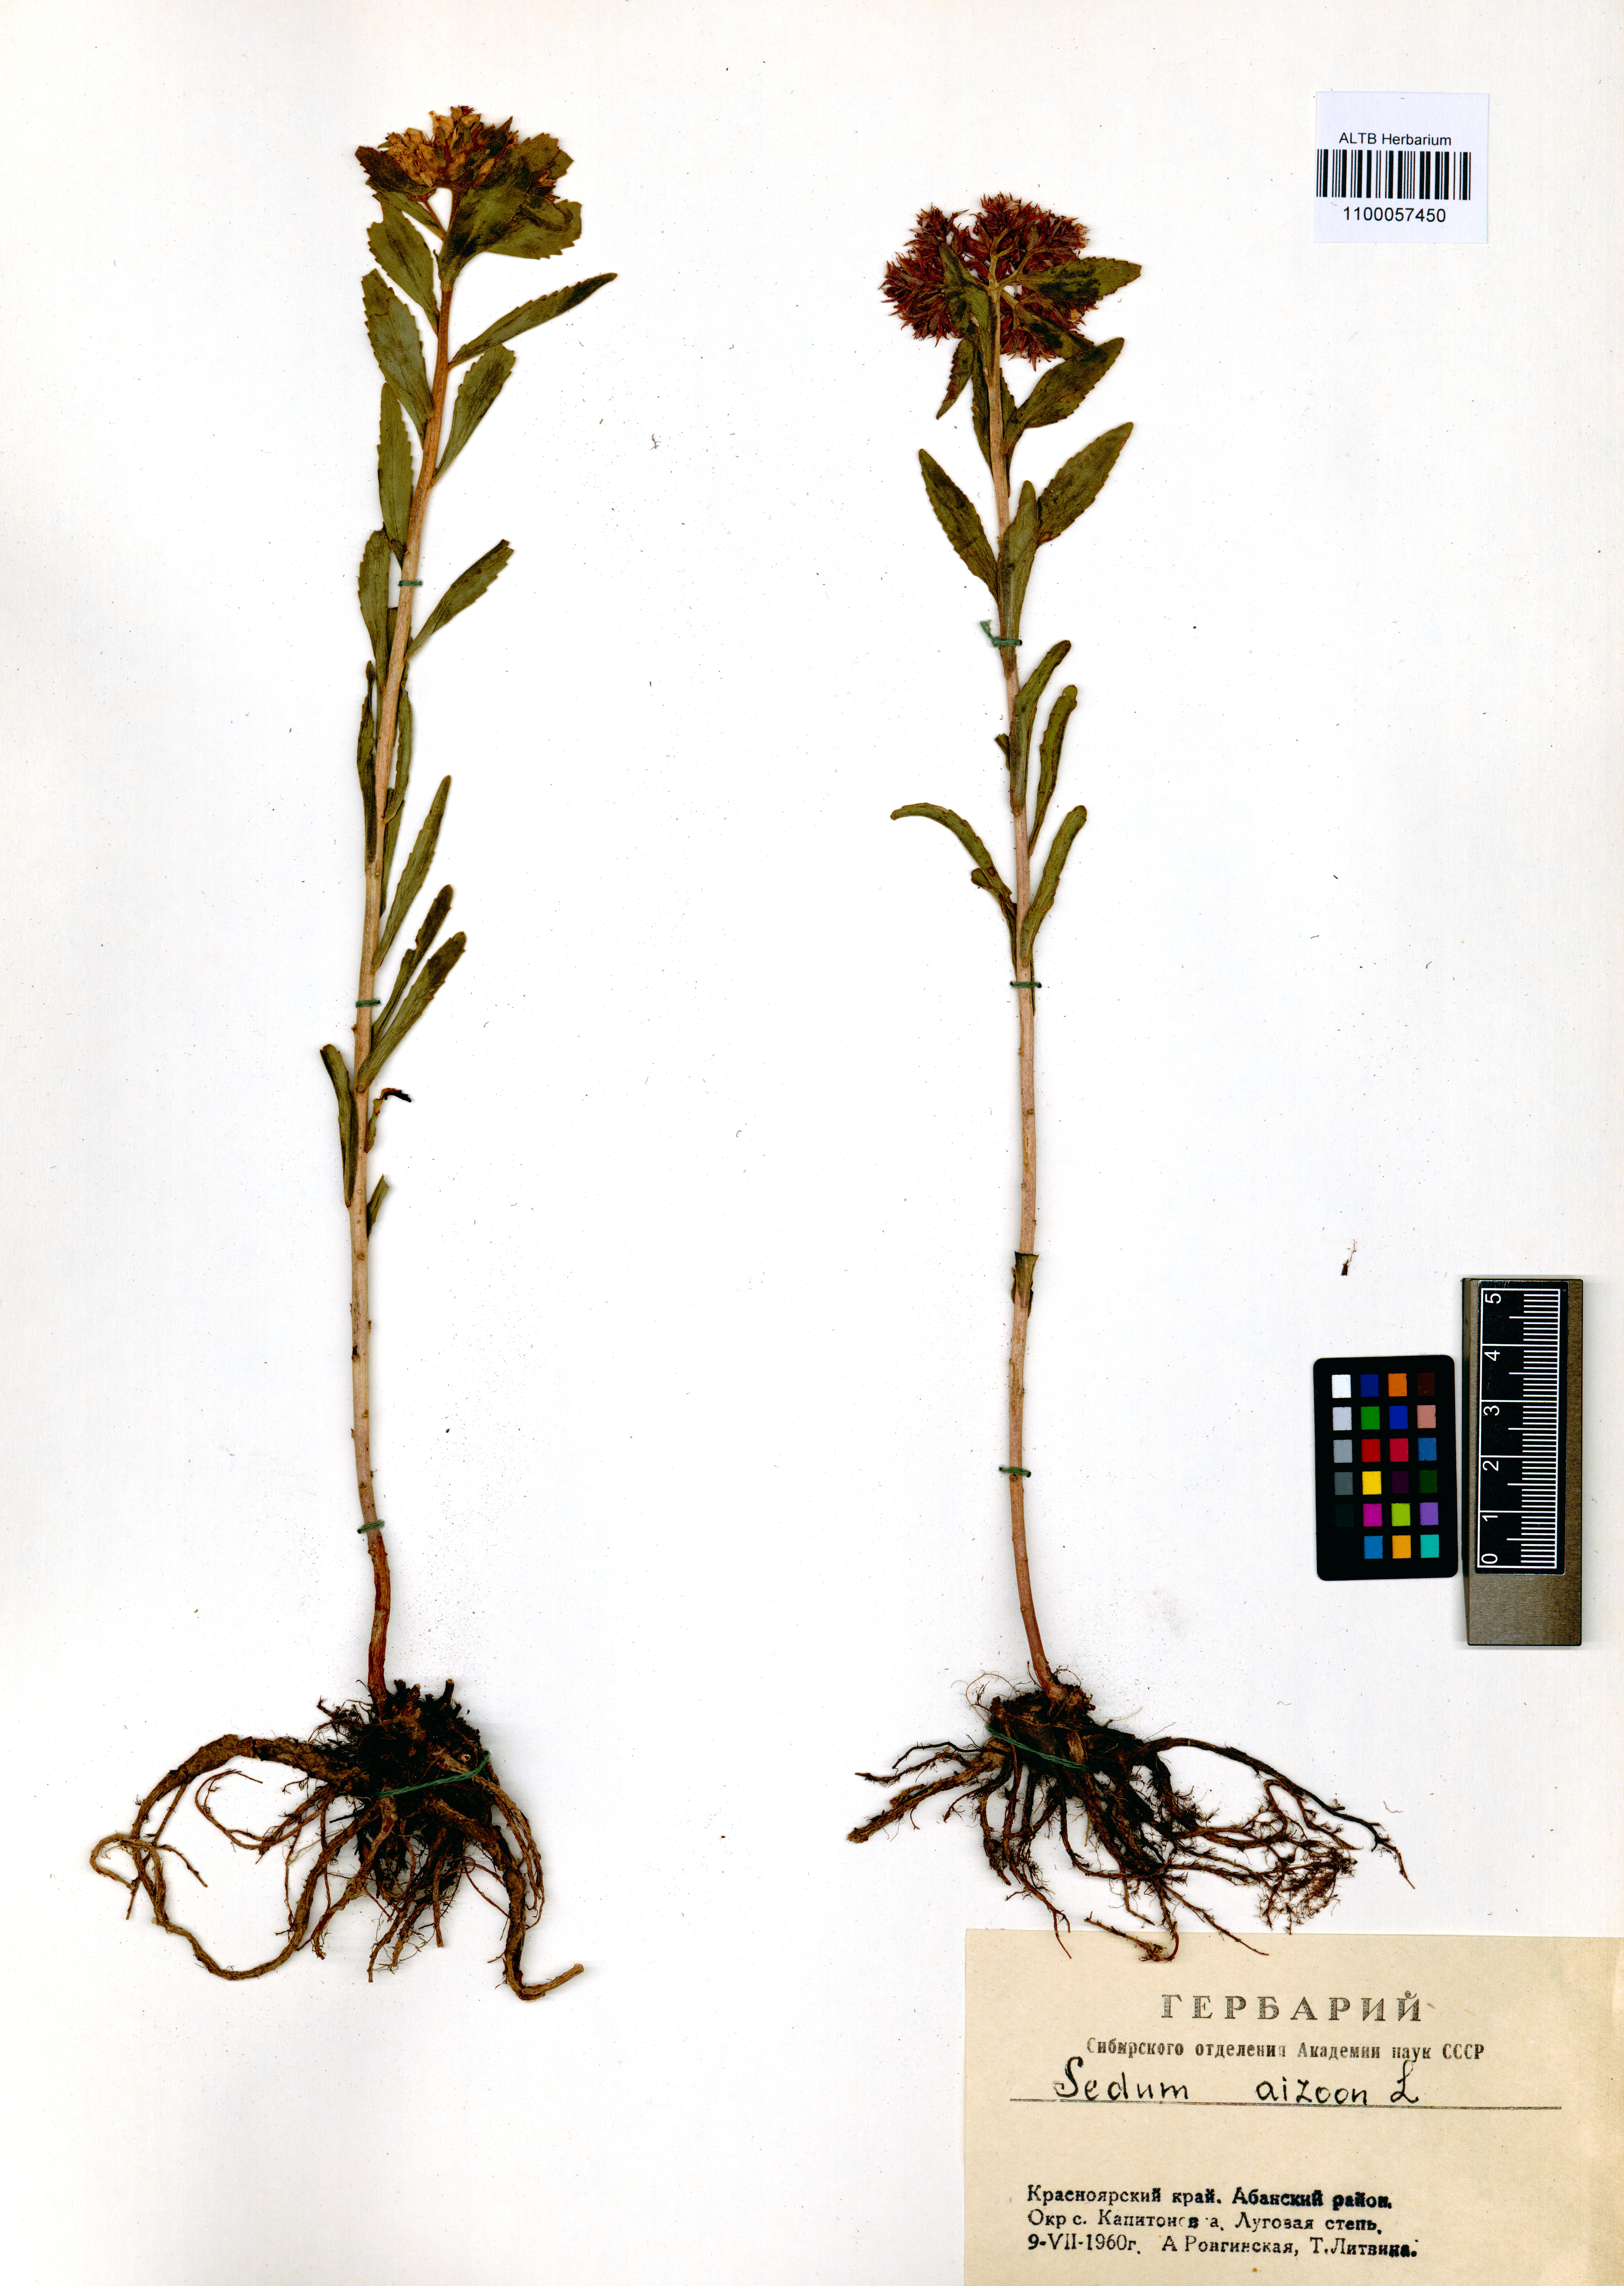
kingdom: Plantae
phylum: Tracheophyta
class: Magnoliopsida
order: Saxifragales
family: Crassulaceae
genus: Phedimus
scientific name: Phedimus aizoon
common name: Orpin aizoon
